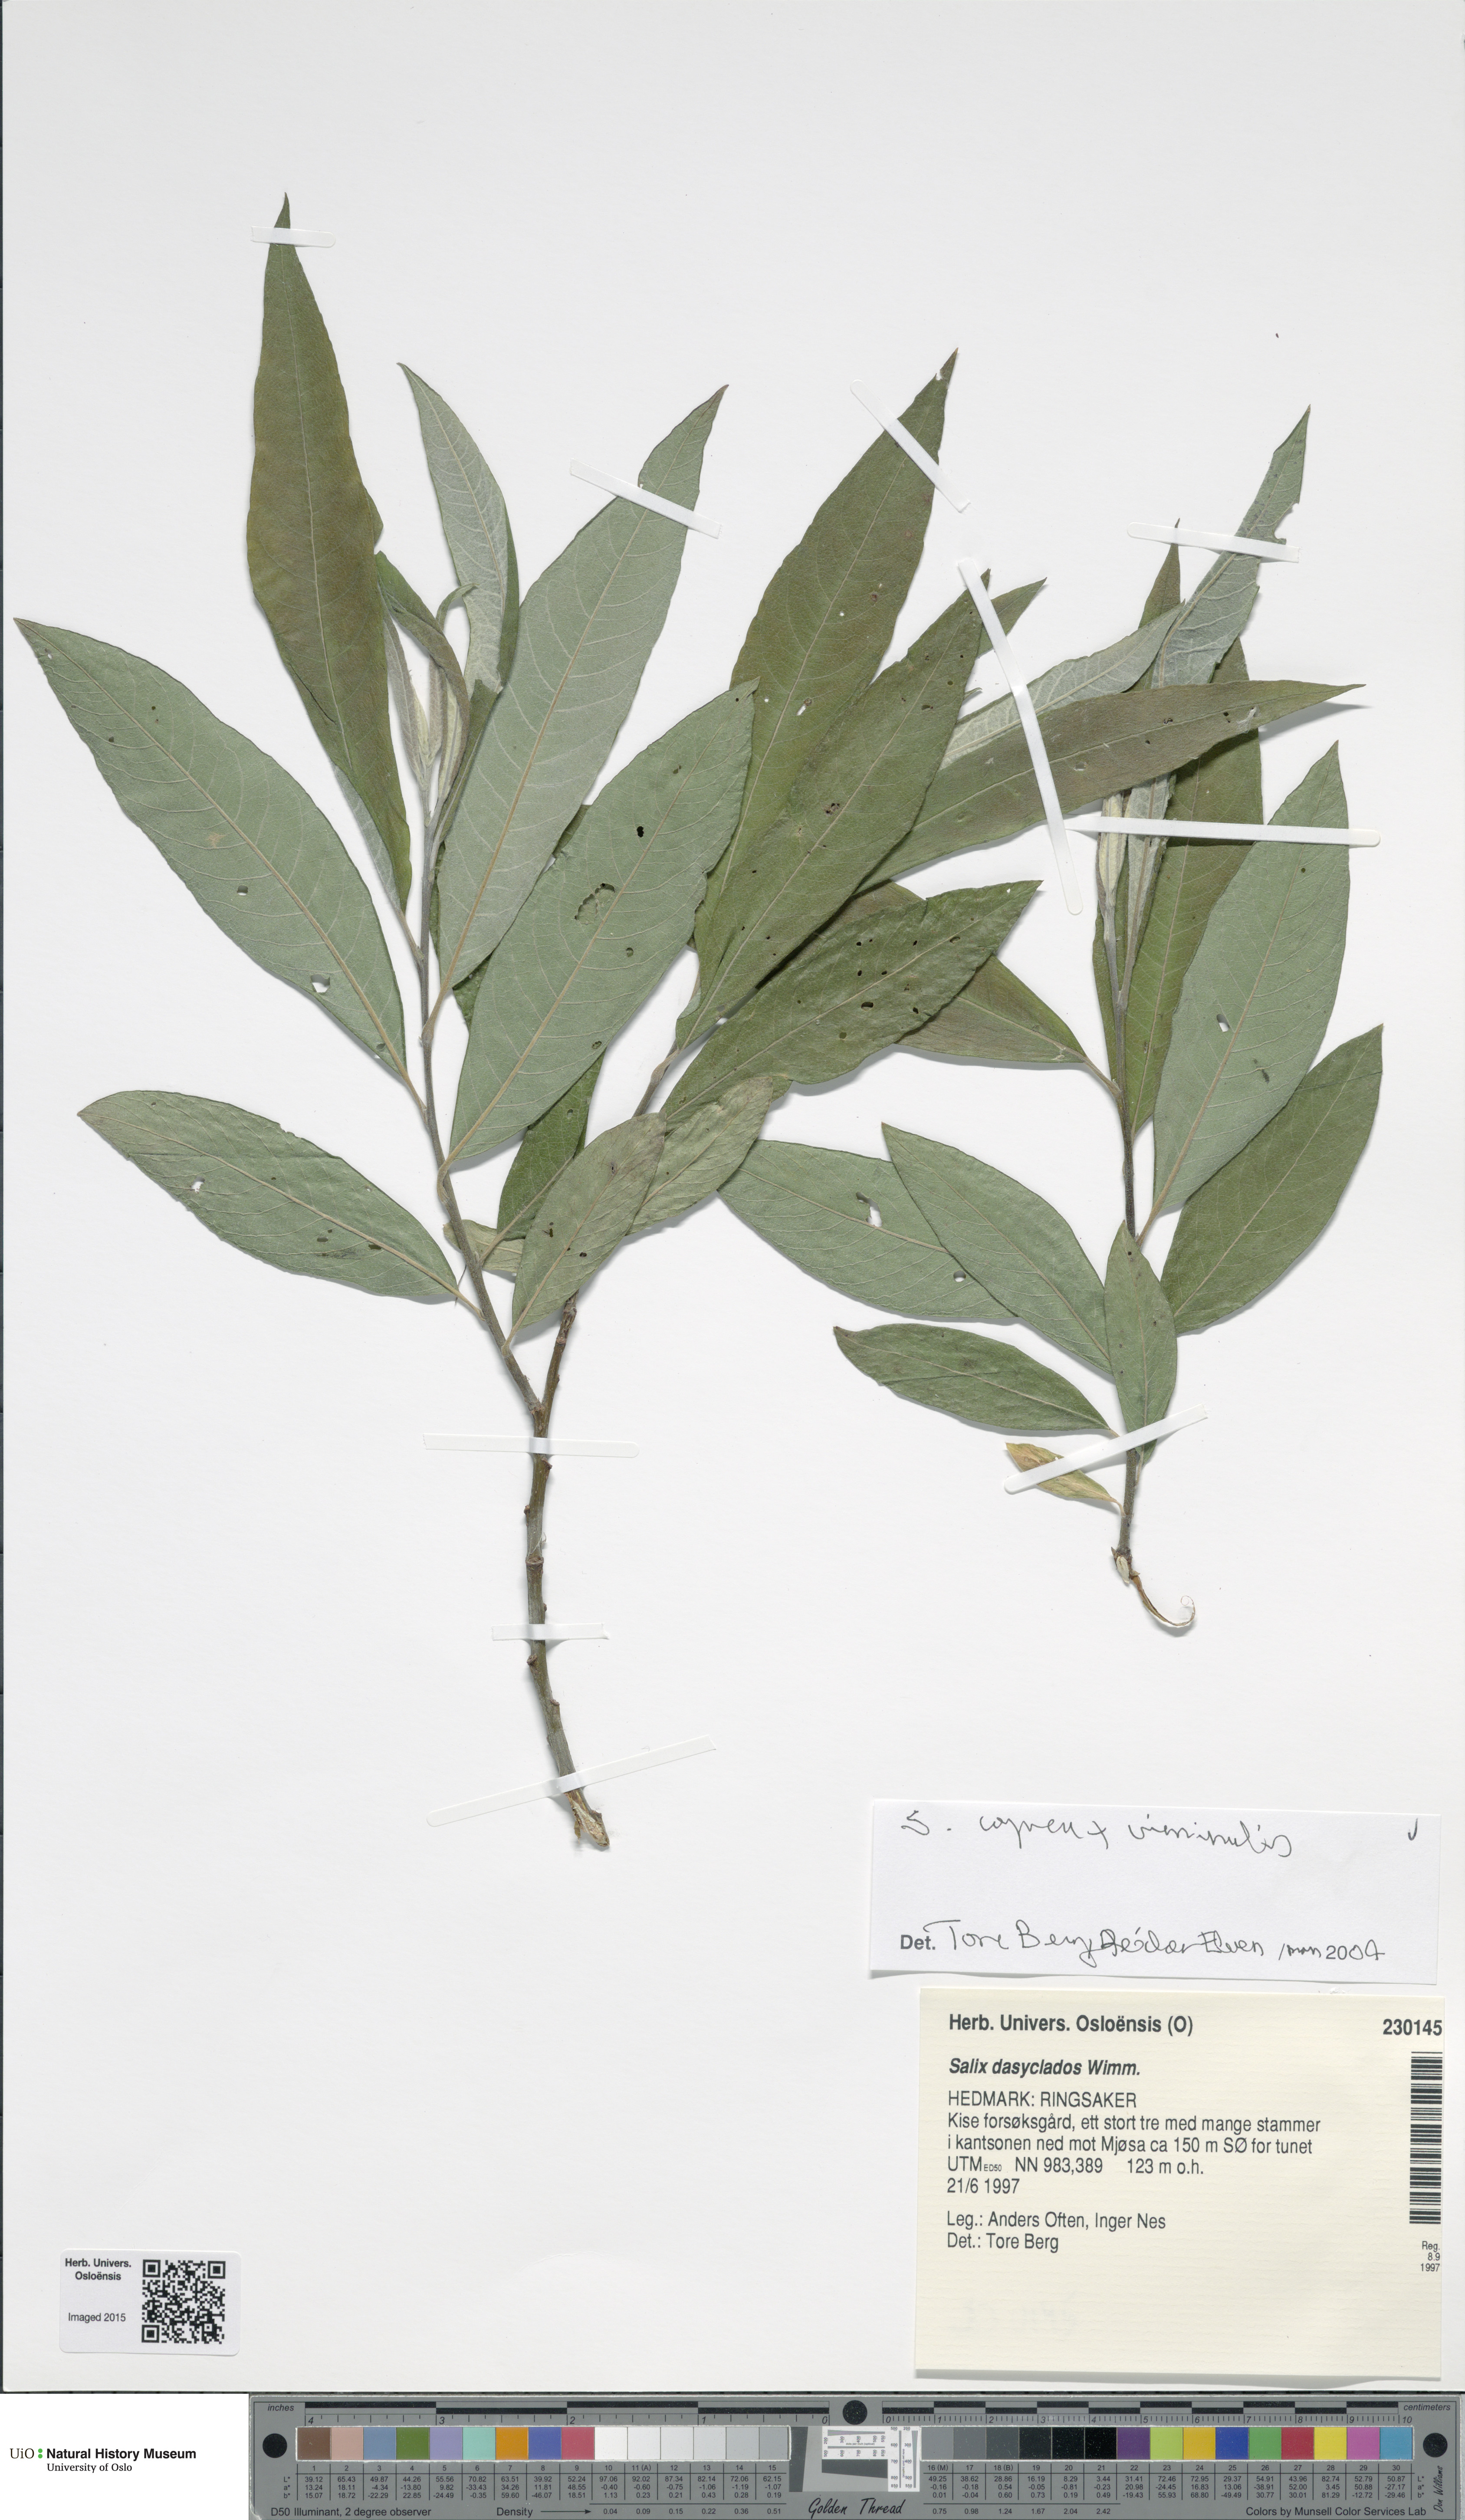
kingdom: Plantae
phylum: Tracheophyta
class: Magnoliopsida
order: Malpighiales
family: Salicaceae
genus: Salix
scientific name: Salix
